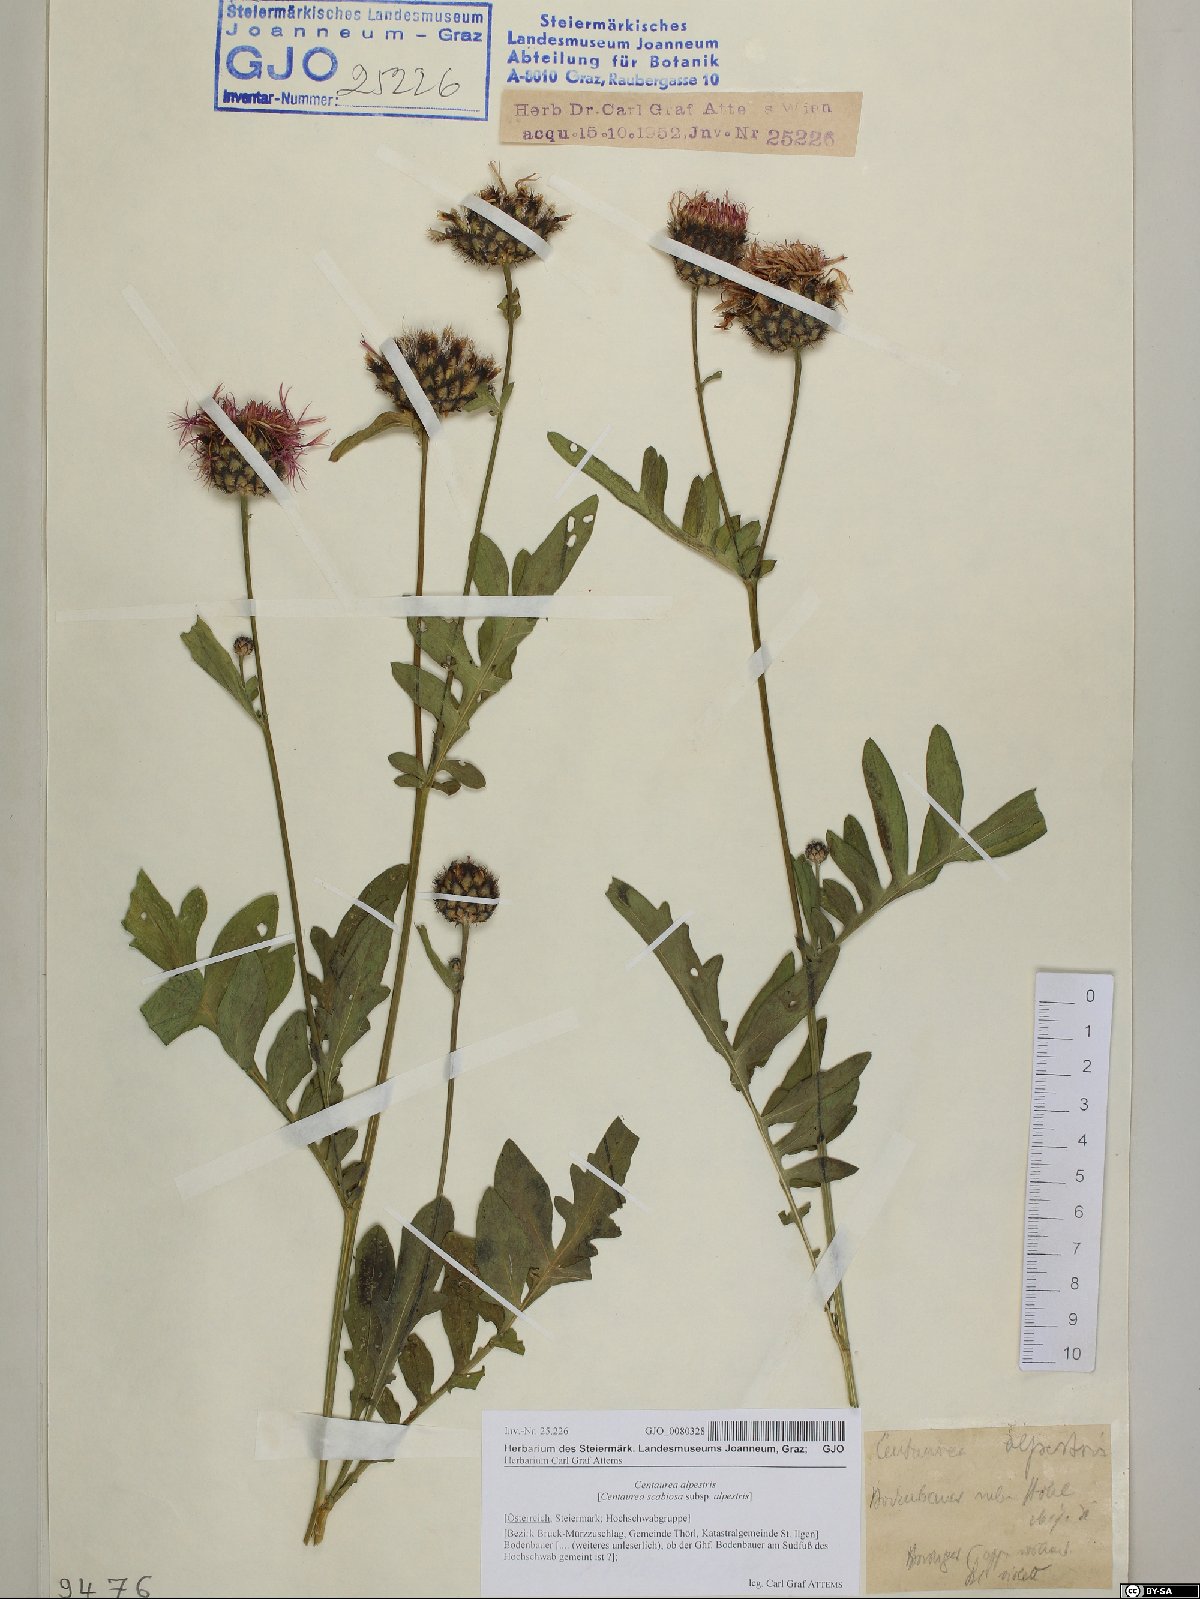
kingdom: Plantae
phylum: Tracheophyta
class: Magnoliopsida
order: Asterales
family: Asteraceae
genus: Centaurea
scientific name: Centaurea scabiosa
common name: Greater knapweed
